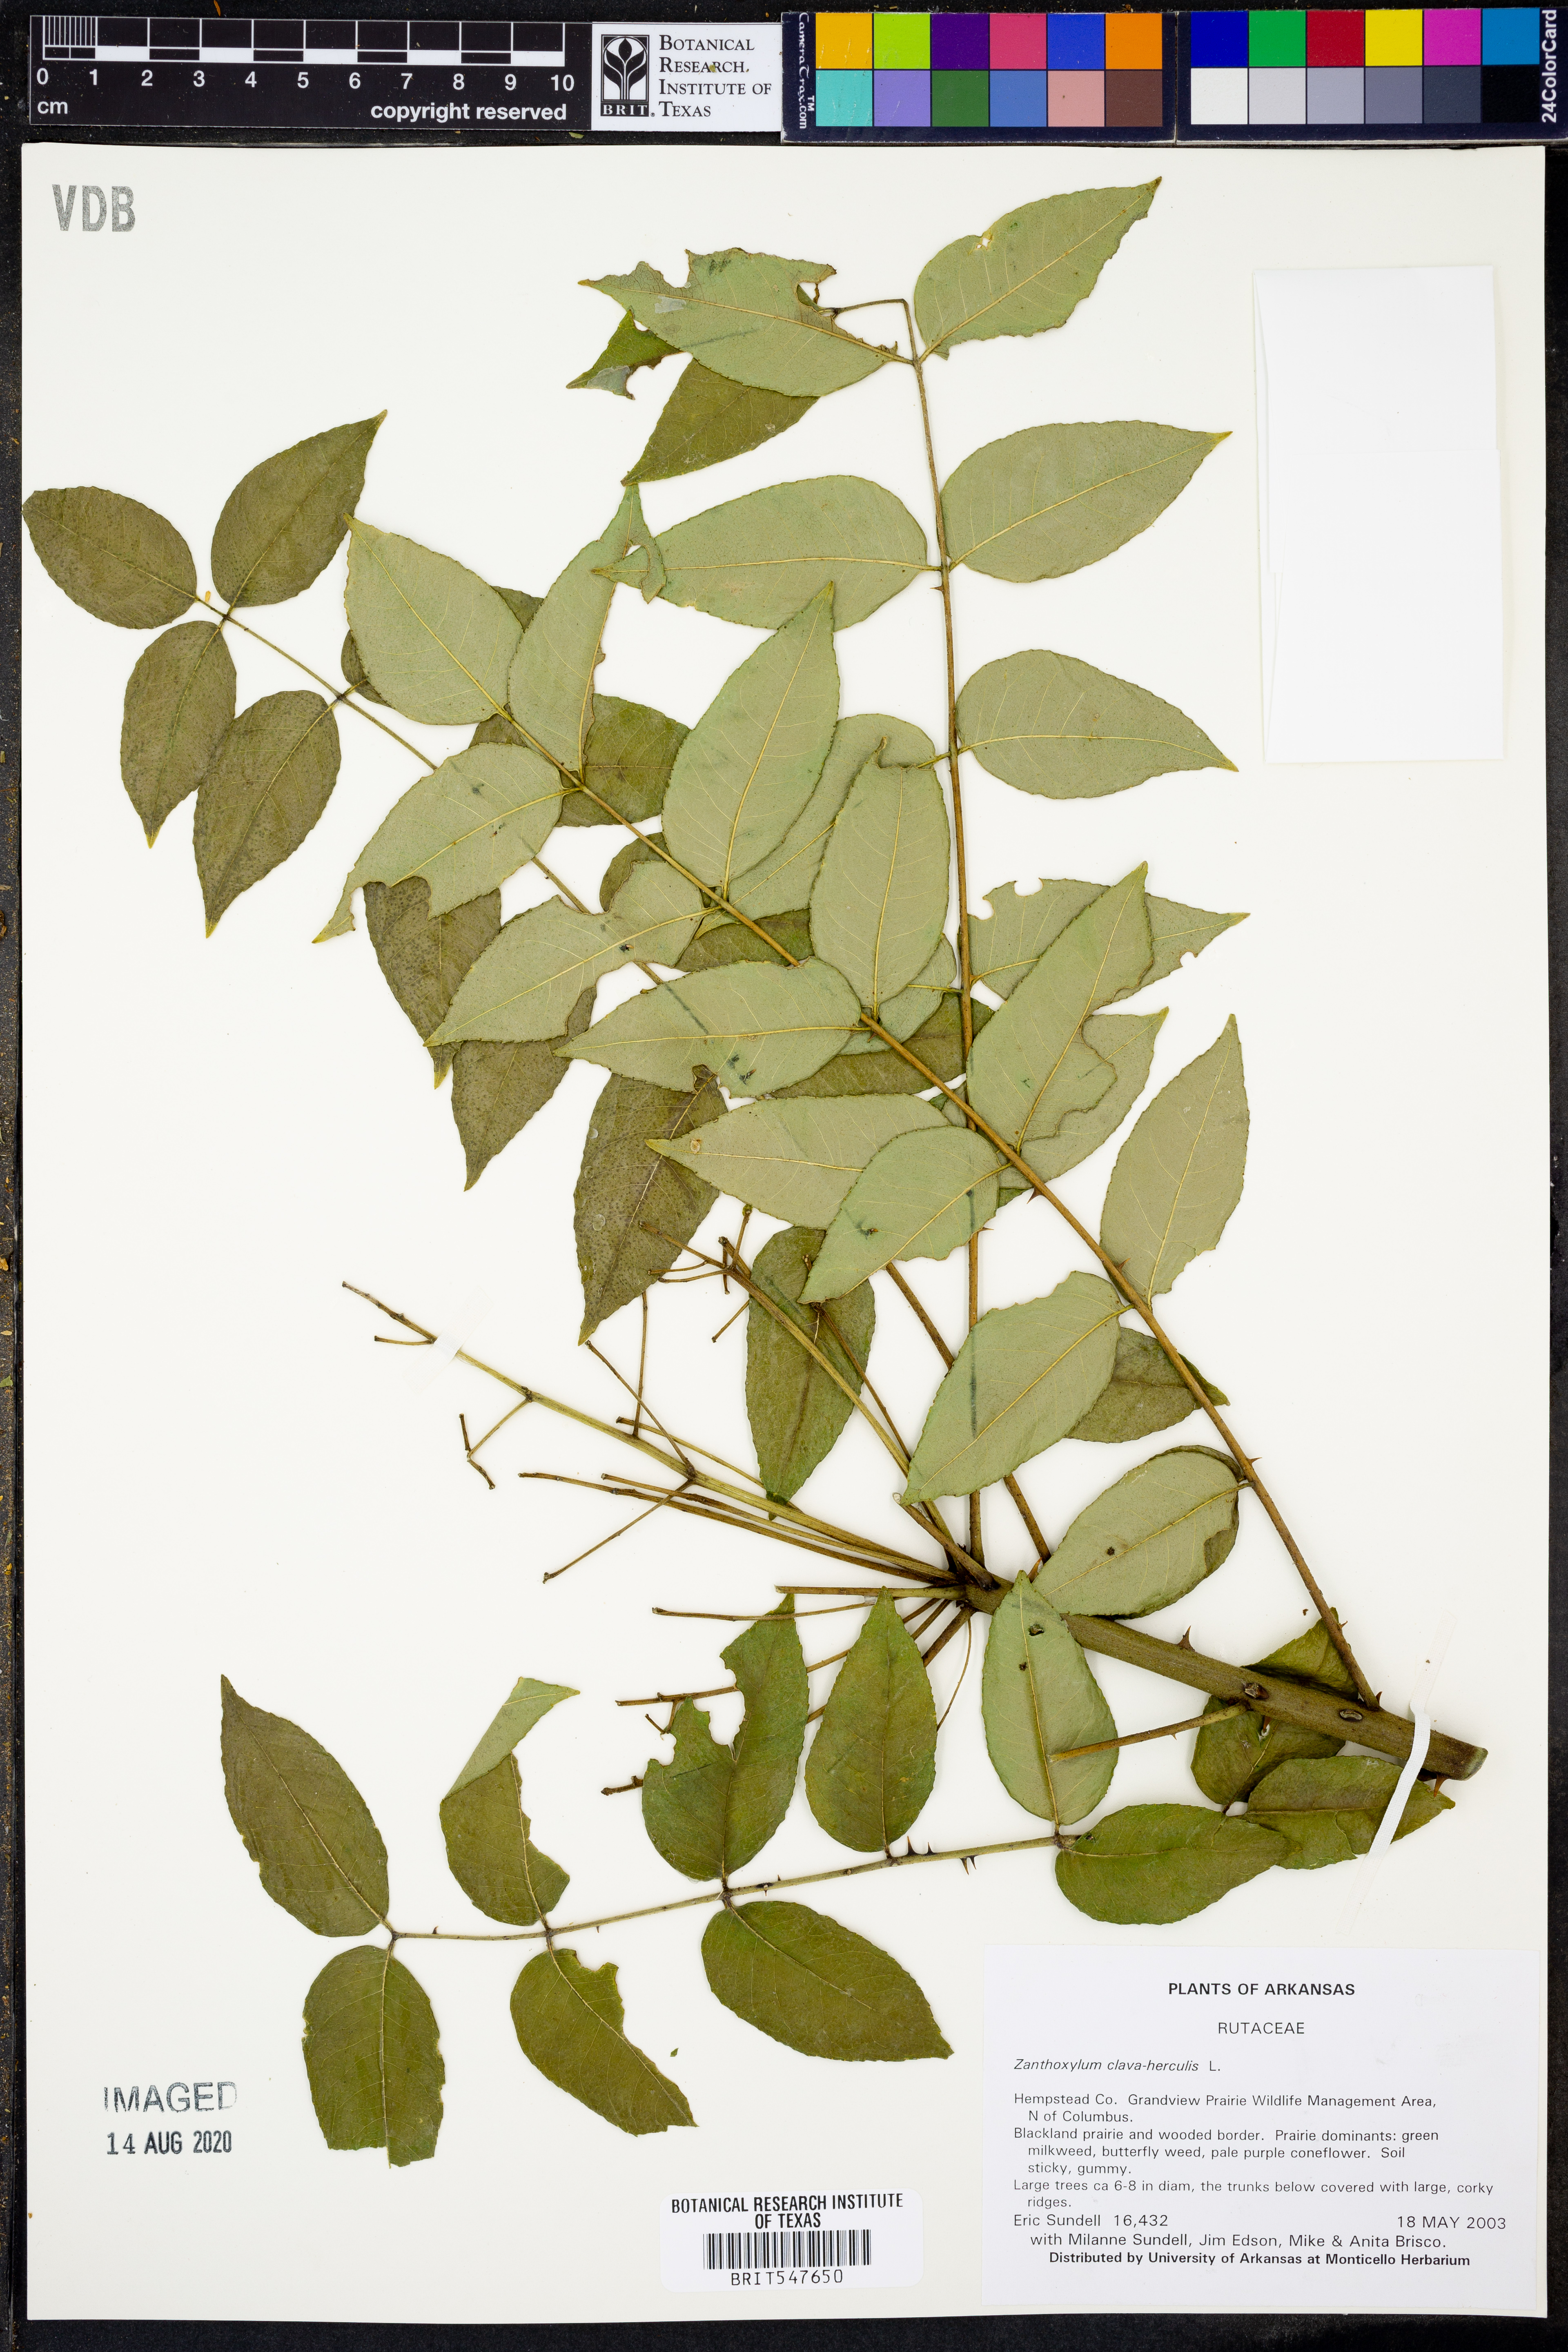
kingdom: Plantae
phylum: Tracheophyta
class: Magnoliopsida
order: Sapindales
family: Rutaceae
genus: Zanthoxylum
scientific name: Zanthoxylum avicennae
